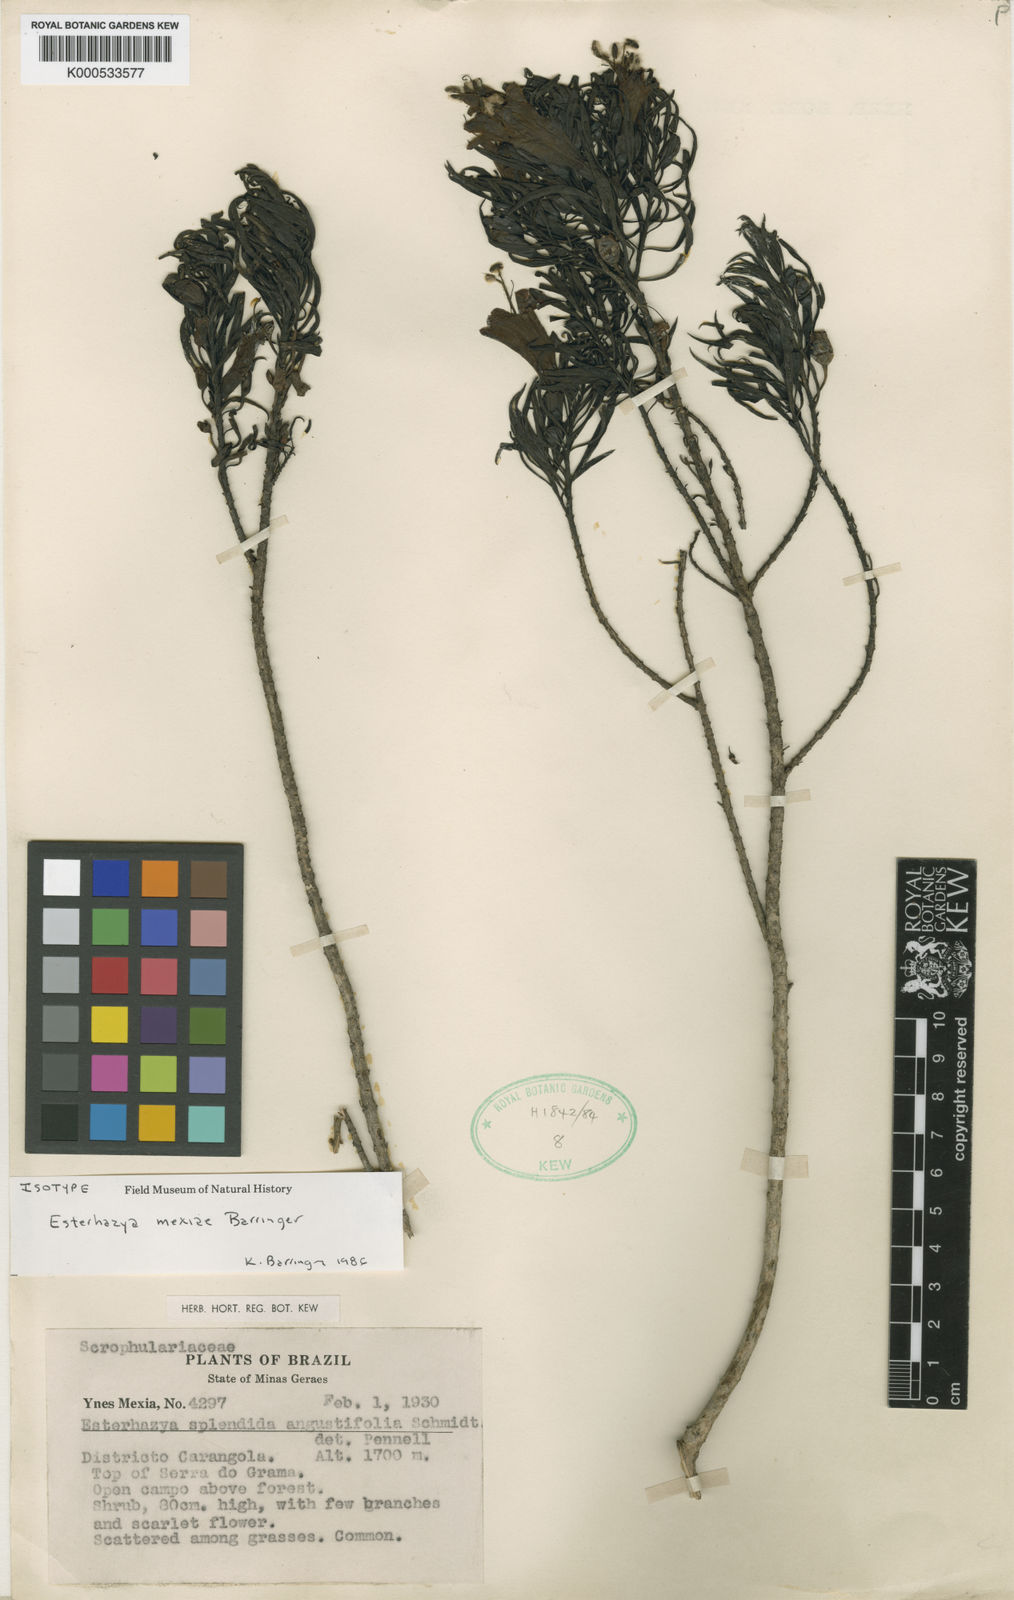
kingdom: Plantae
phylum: Tracheophyta
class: Magnoliopsida
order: Lamiales
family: Orobanchaceae
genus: Esterhazya
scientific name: Esterhazya
